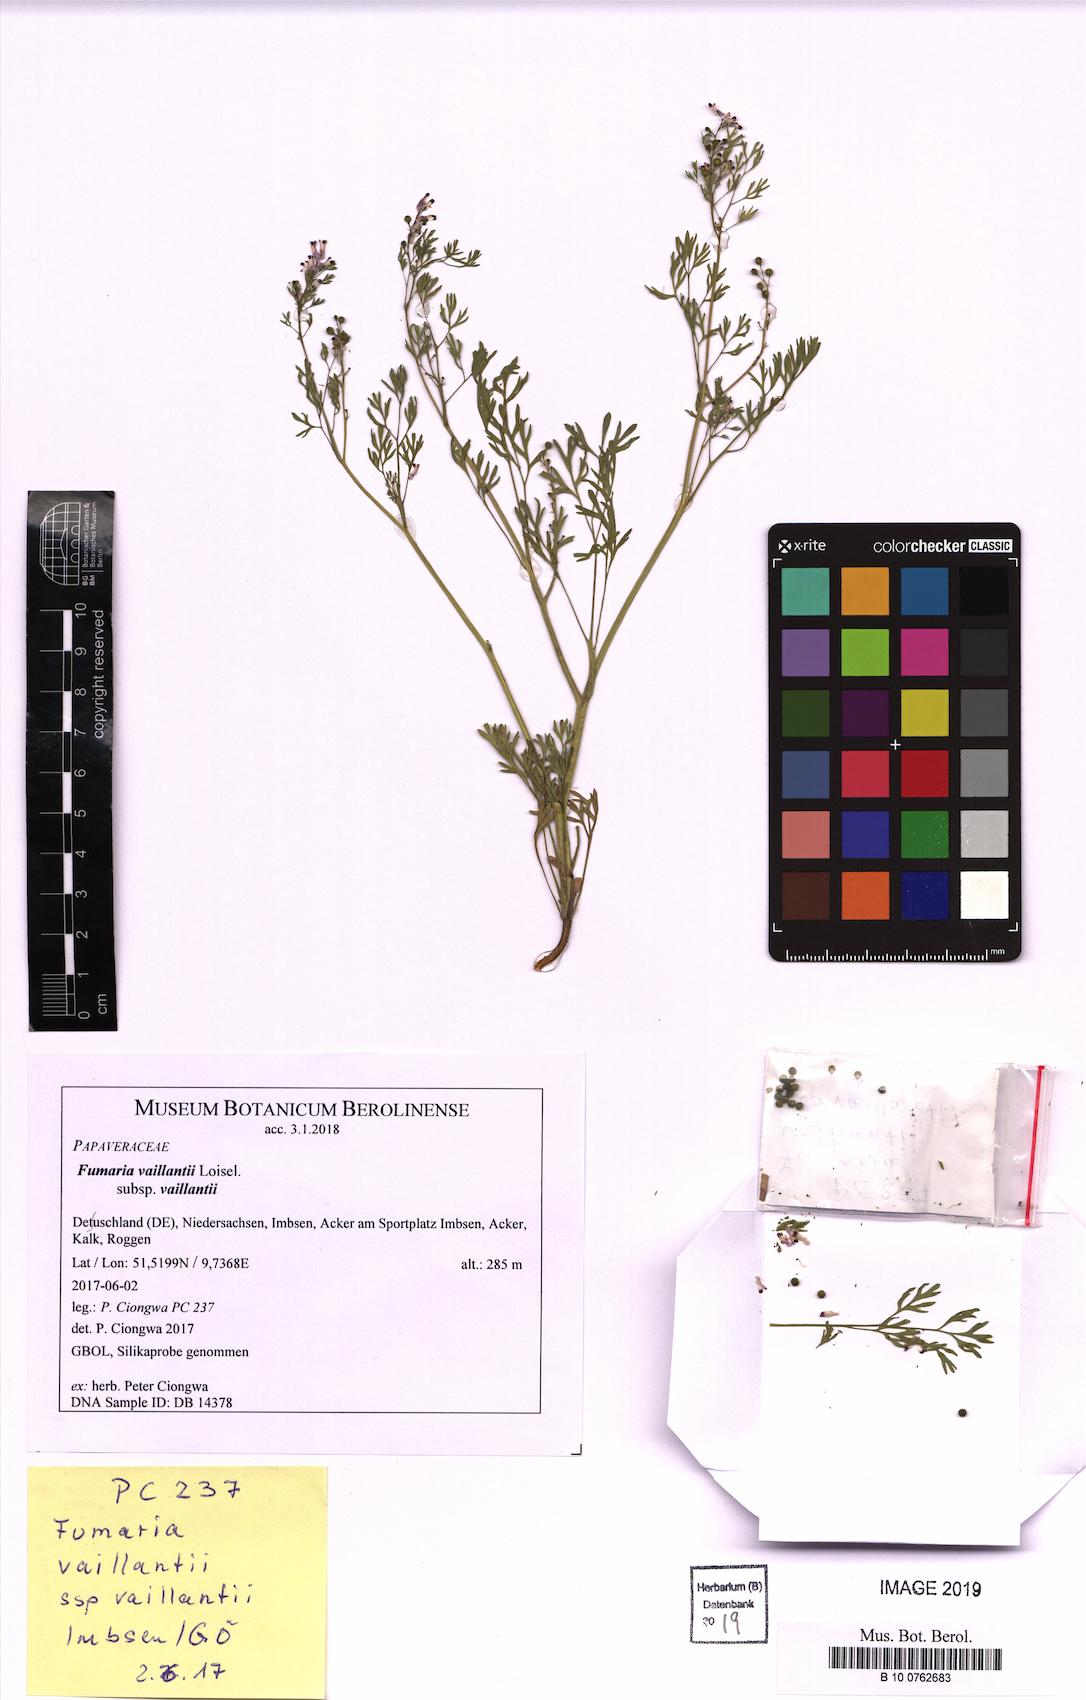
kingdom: Plantae
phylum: Tracheophyta
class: Magnoliopsida
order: Ranunculales
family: Papaveraceae
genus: Fumaria
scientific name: Fumaria vaillantii
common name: Few-flowered fumitory
